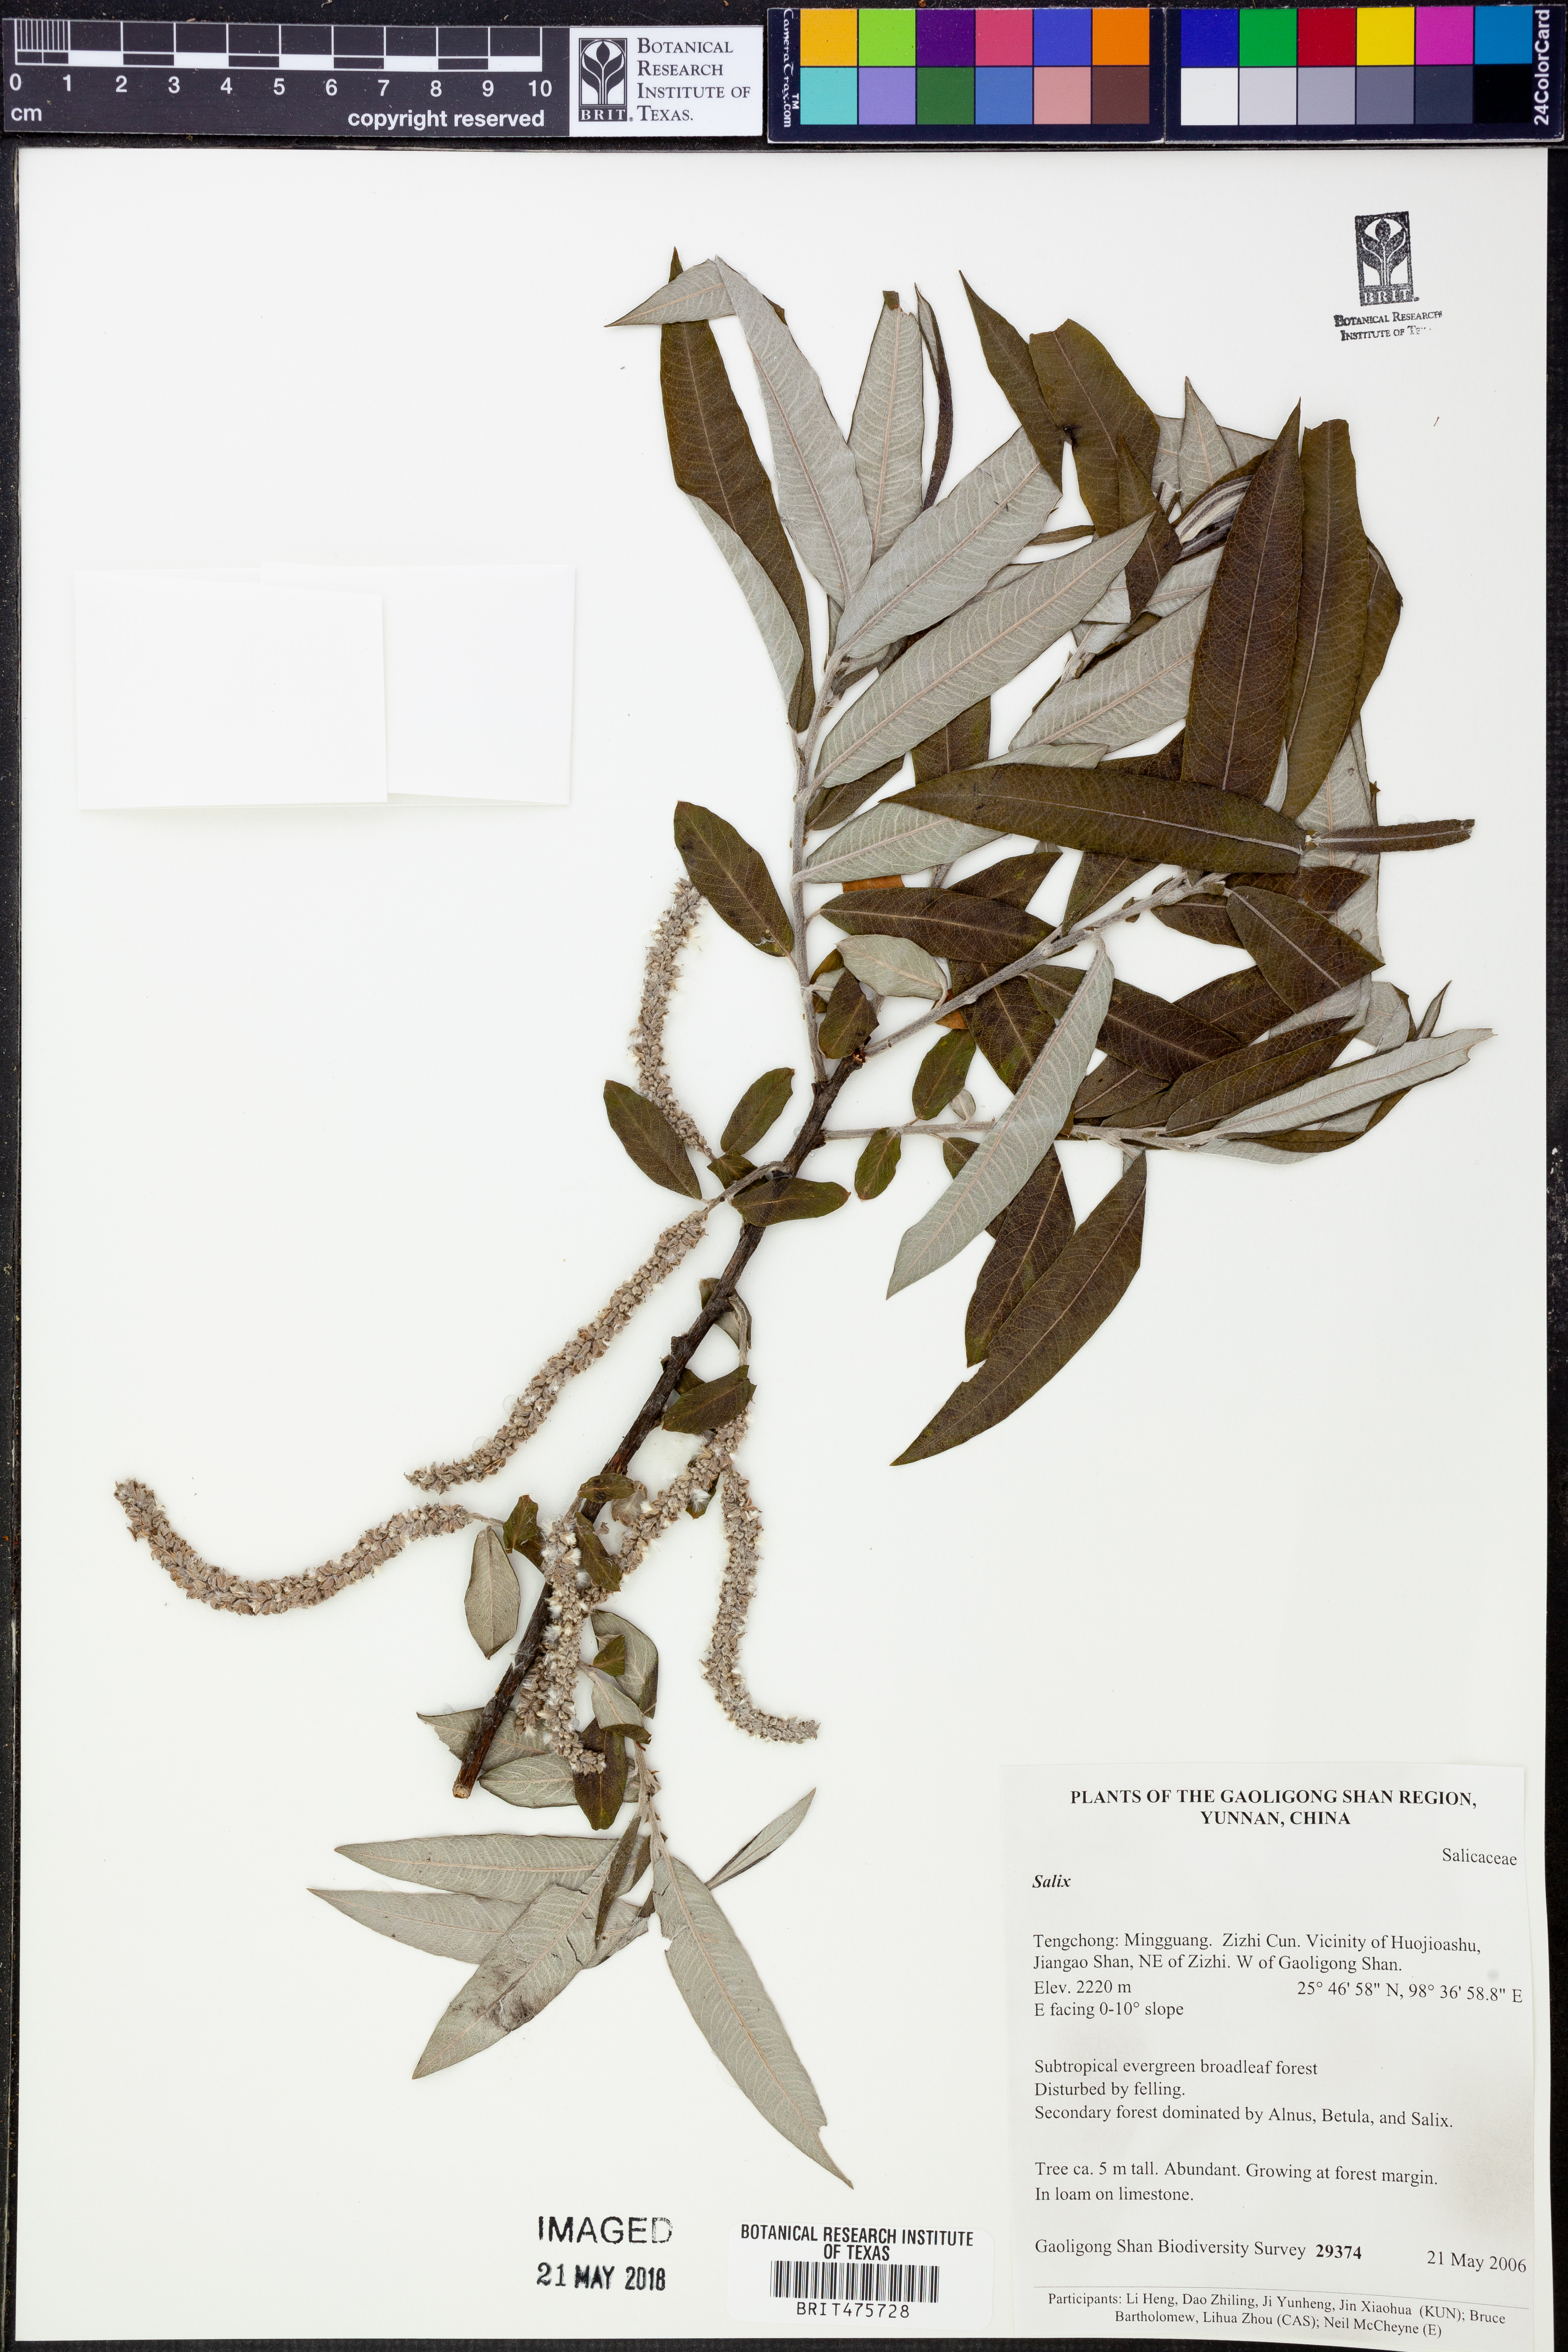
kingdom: Plantae
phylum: Tracheophyta
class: Magnoliopsida
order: Malpighiales
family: Salicaceae
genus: Salix
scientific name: Salix
